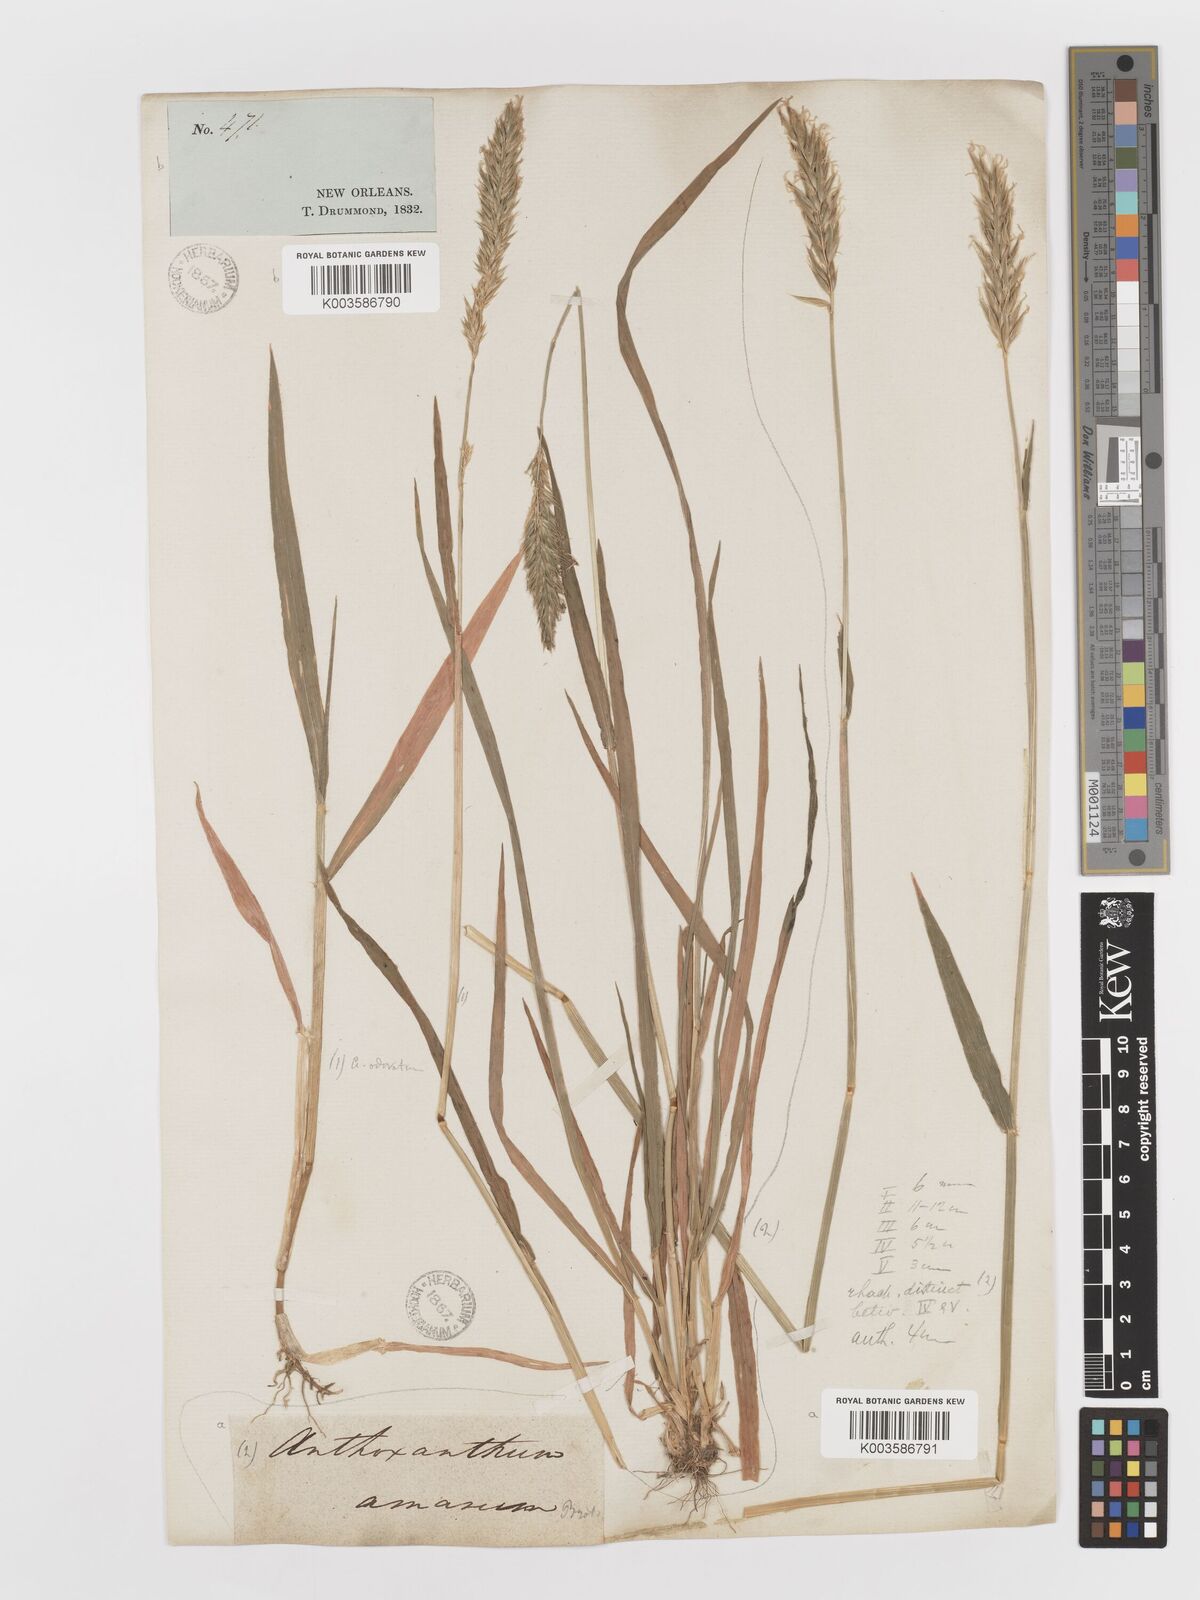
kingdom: Plantae
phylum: Tracheophyta
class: Liliopsida
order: Poales
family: Poaceae
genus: Anthoxanthum
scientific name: Anthoxanthum amarum
